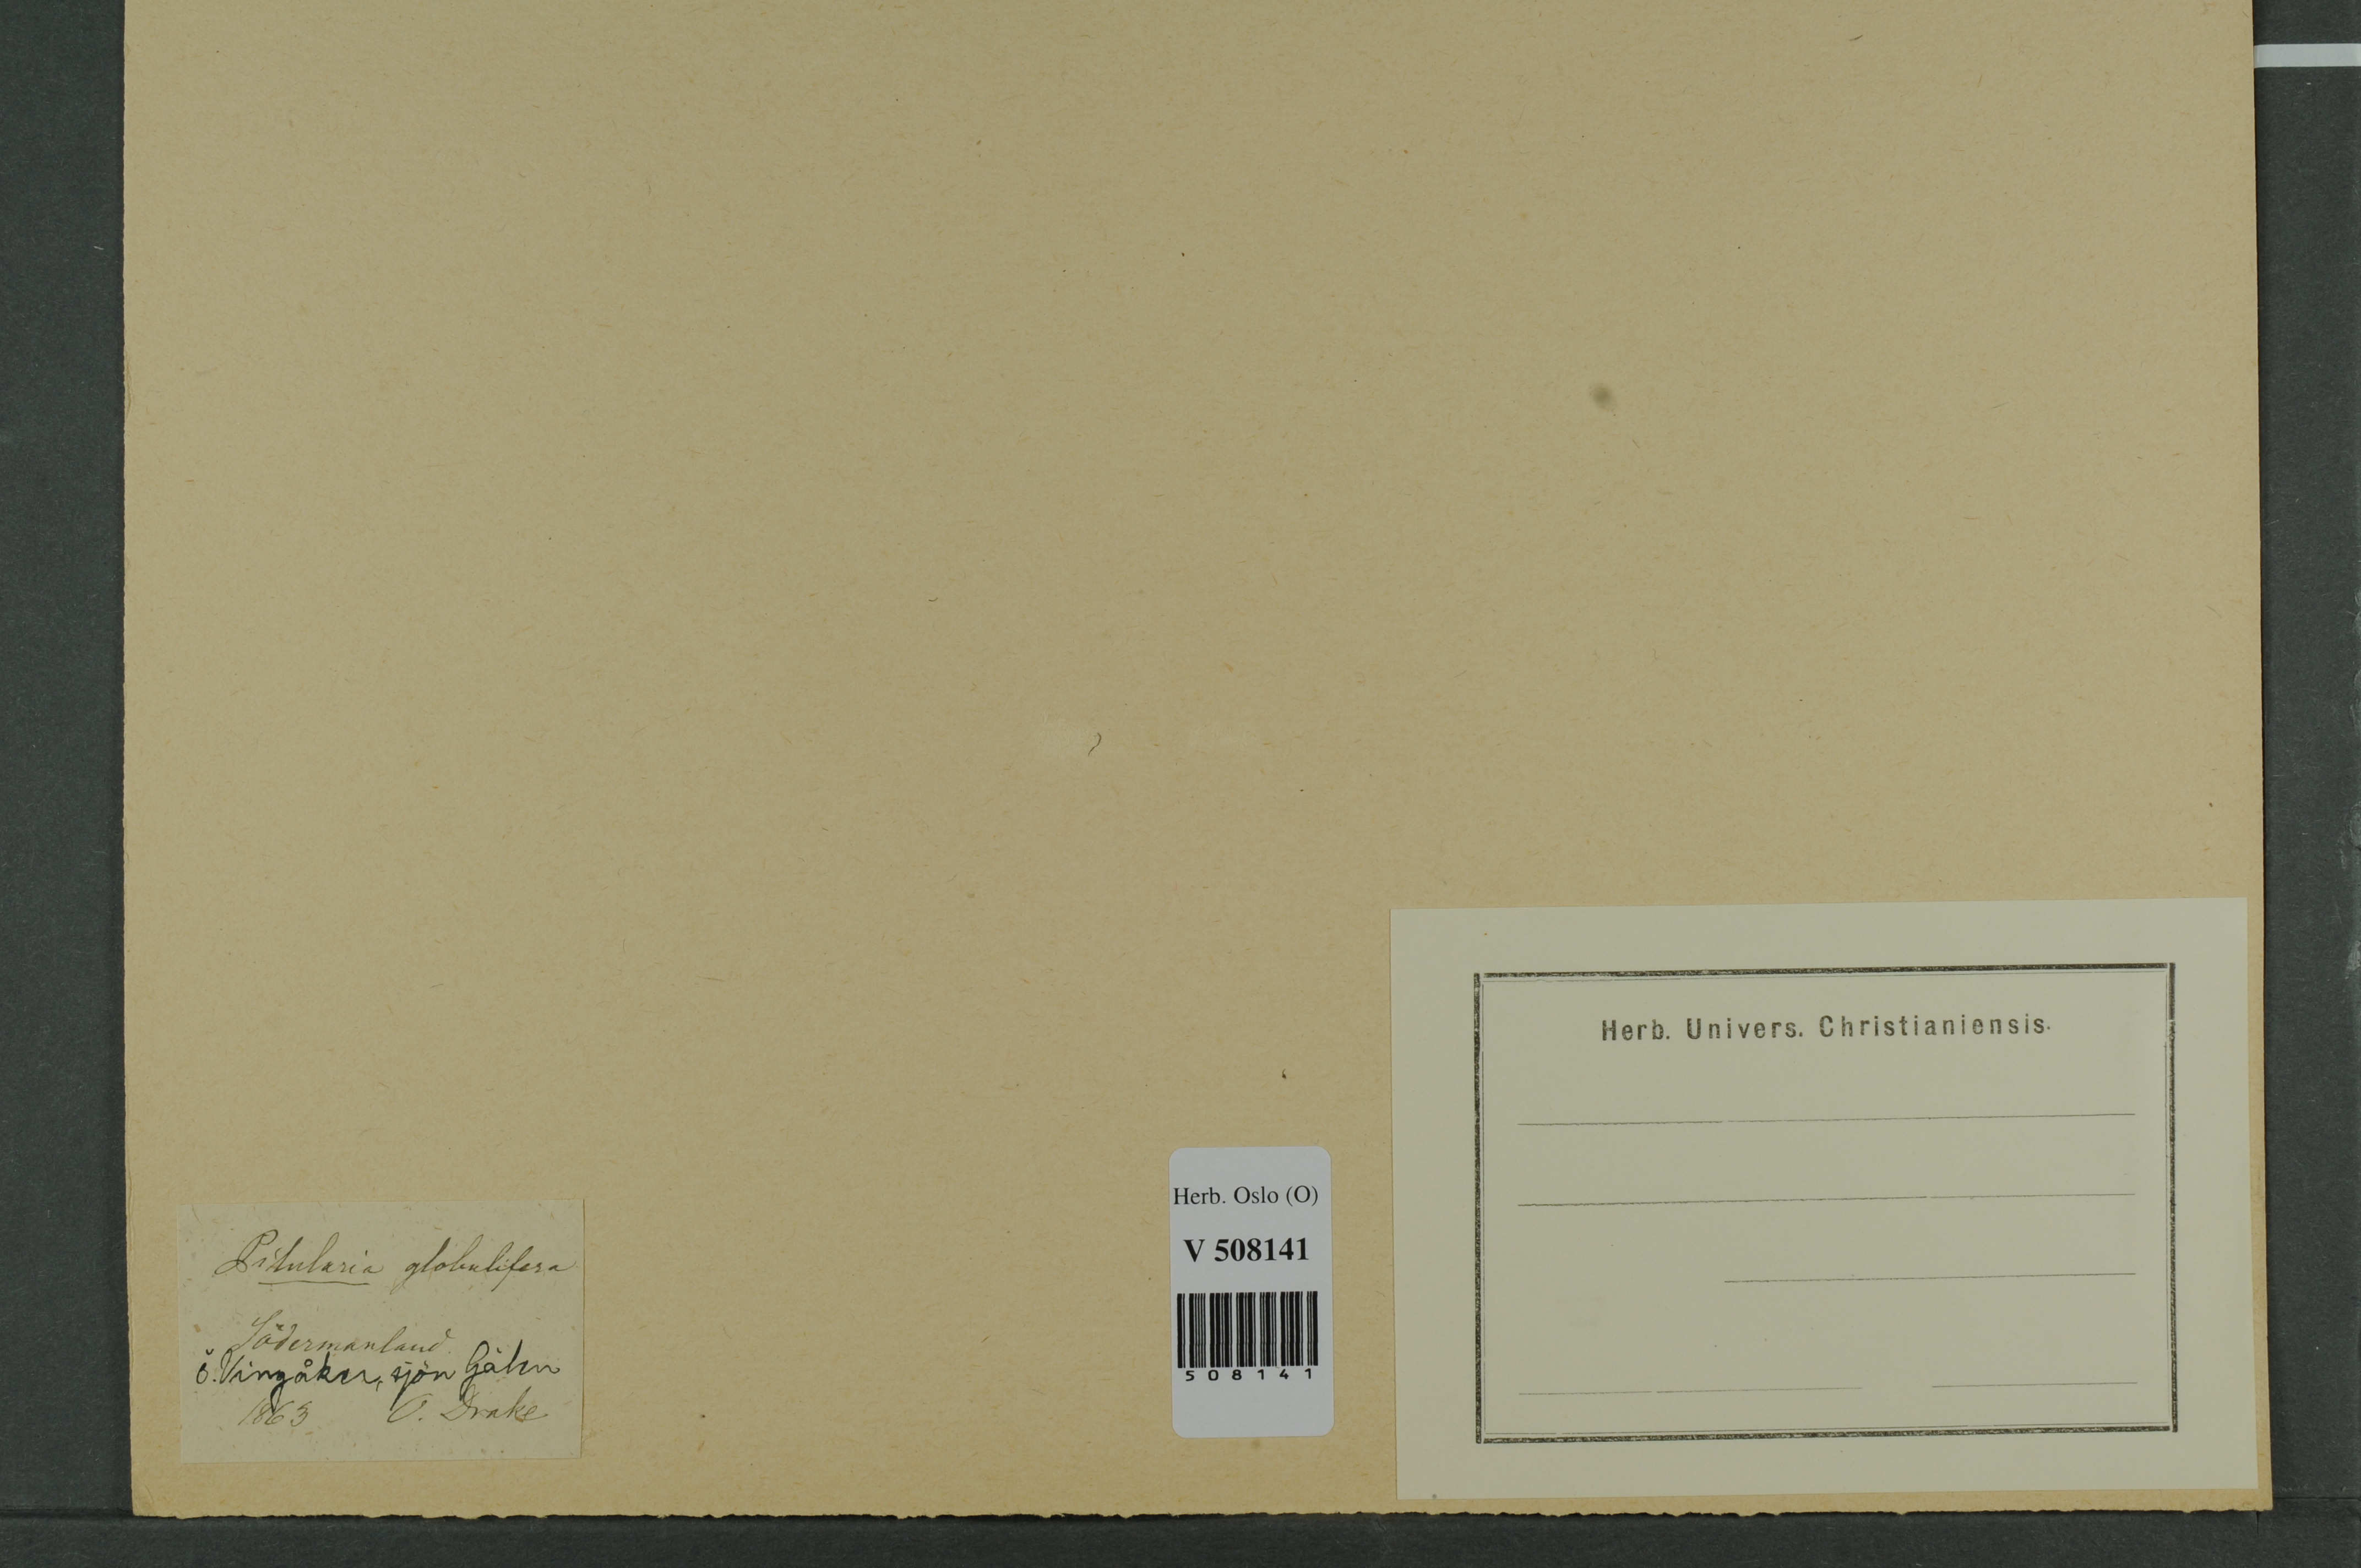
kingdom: Plantae
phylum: Tracheophyta
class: Polypodiopsida
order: Salviniales
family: Marsileaceae
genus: Pilularia
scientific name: Pilularia globulifera
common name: Pillwort
